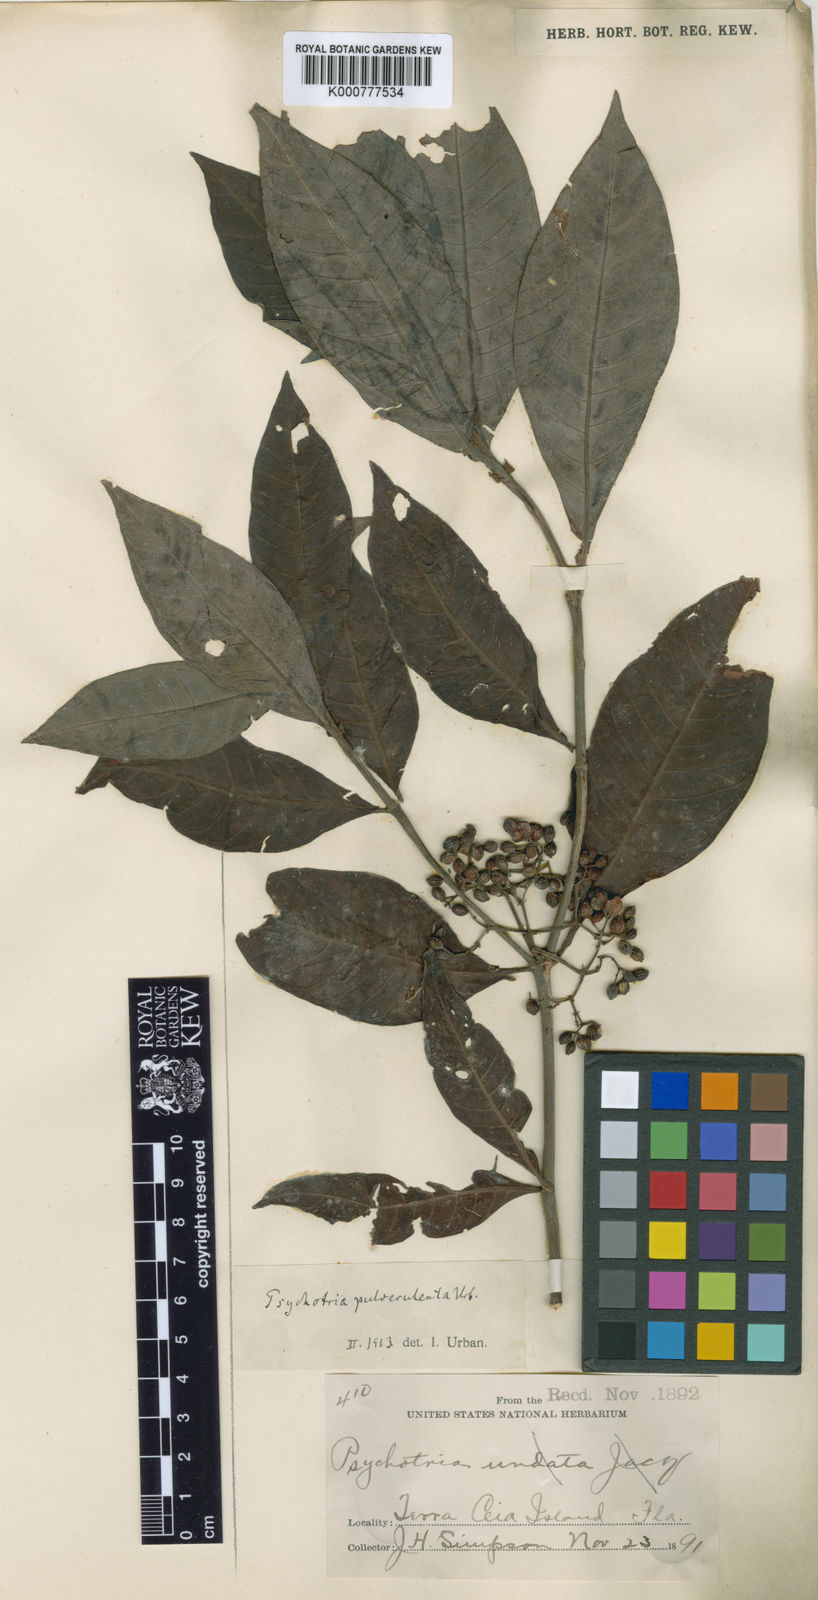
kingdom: Plantae
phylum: Tracheophyta
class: Magnoliopsida
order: Gentianales
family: Rubiaceae
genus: Psychotria
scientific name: Psychotria tenuifolia
